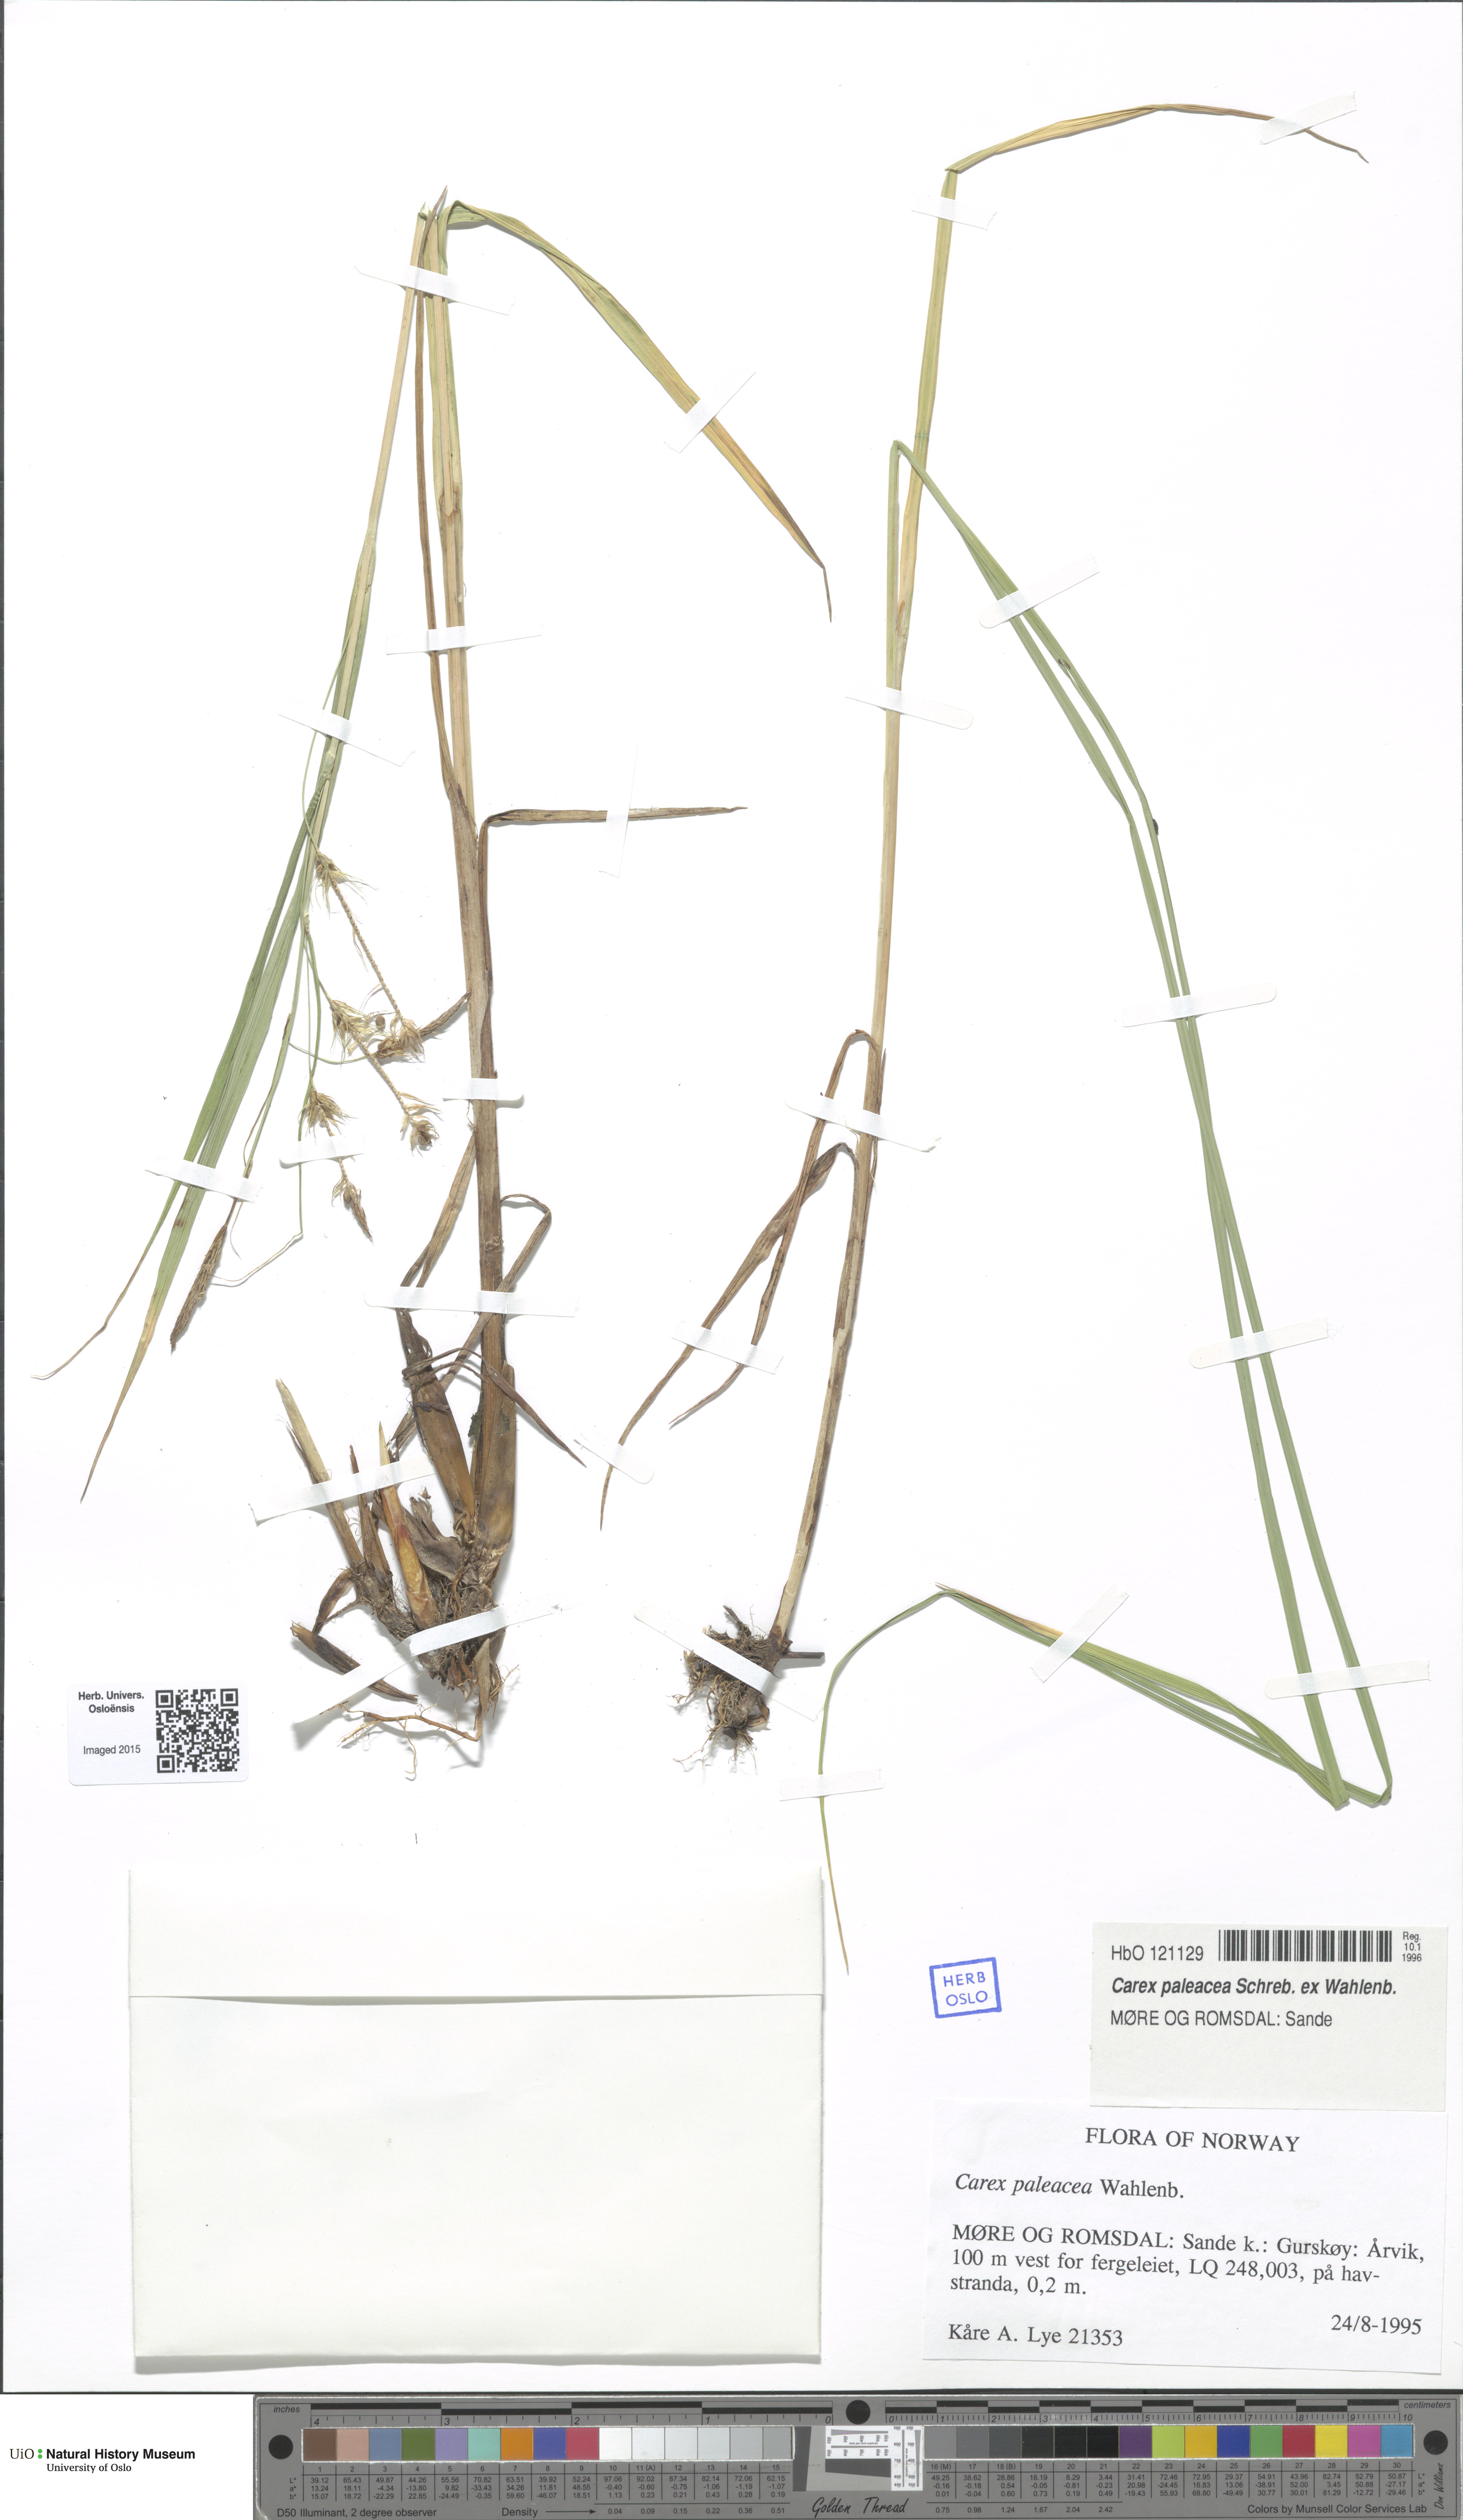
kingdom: Plantae
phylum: Tracheophyta
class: Liliopsida
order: Poales
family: Cyperaceae
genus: Carex
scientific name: Carex paleacea
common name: Chaffy sedge
